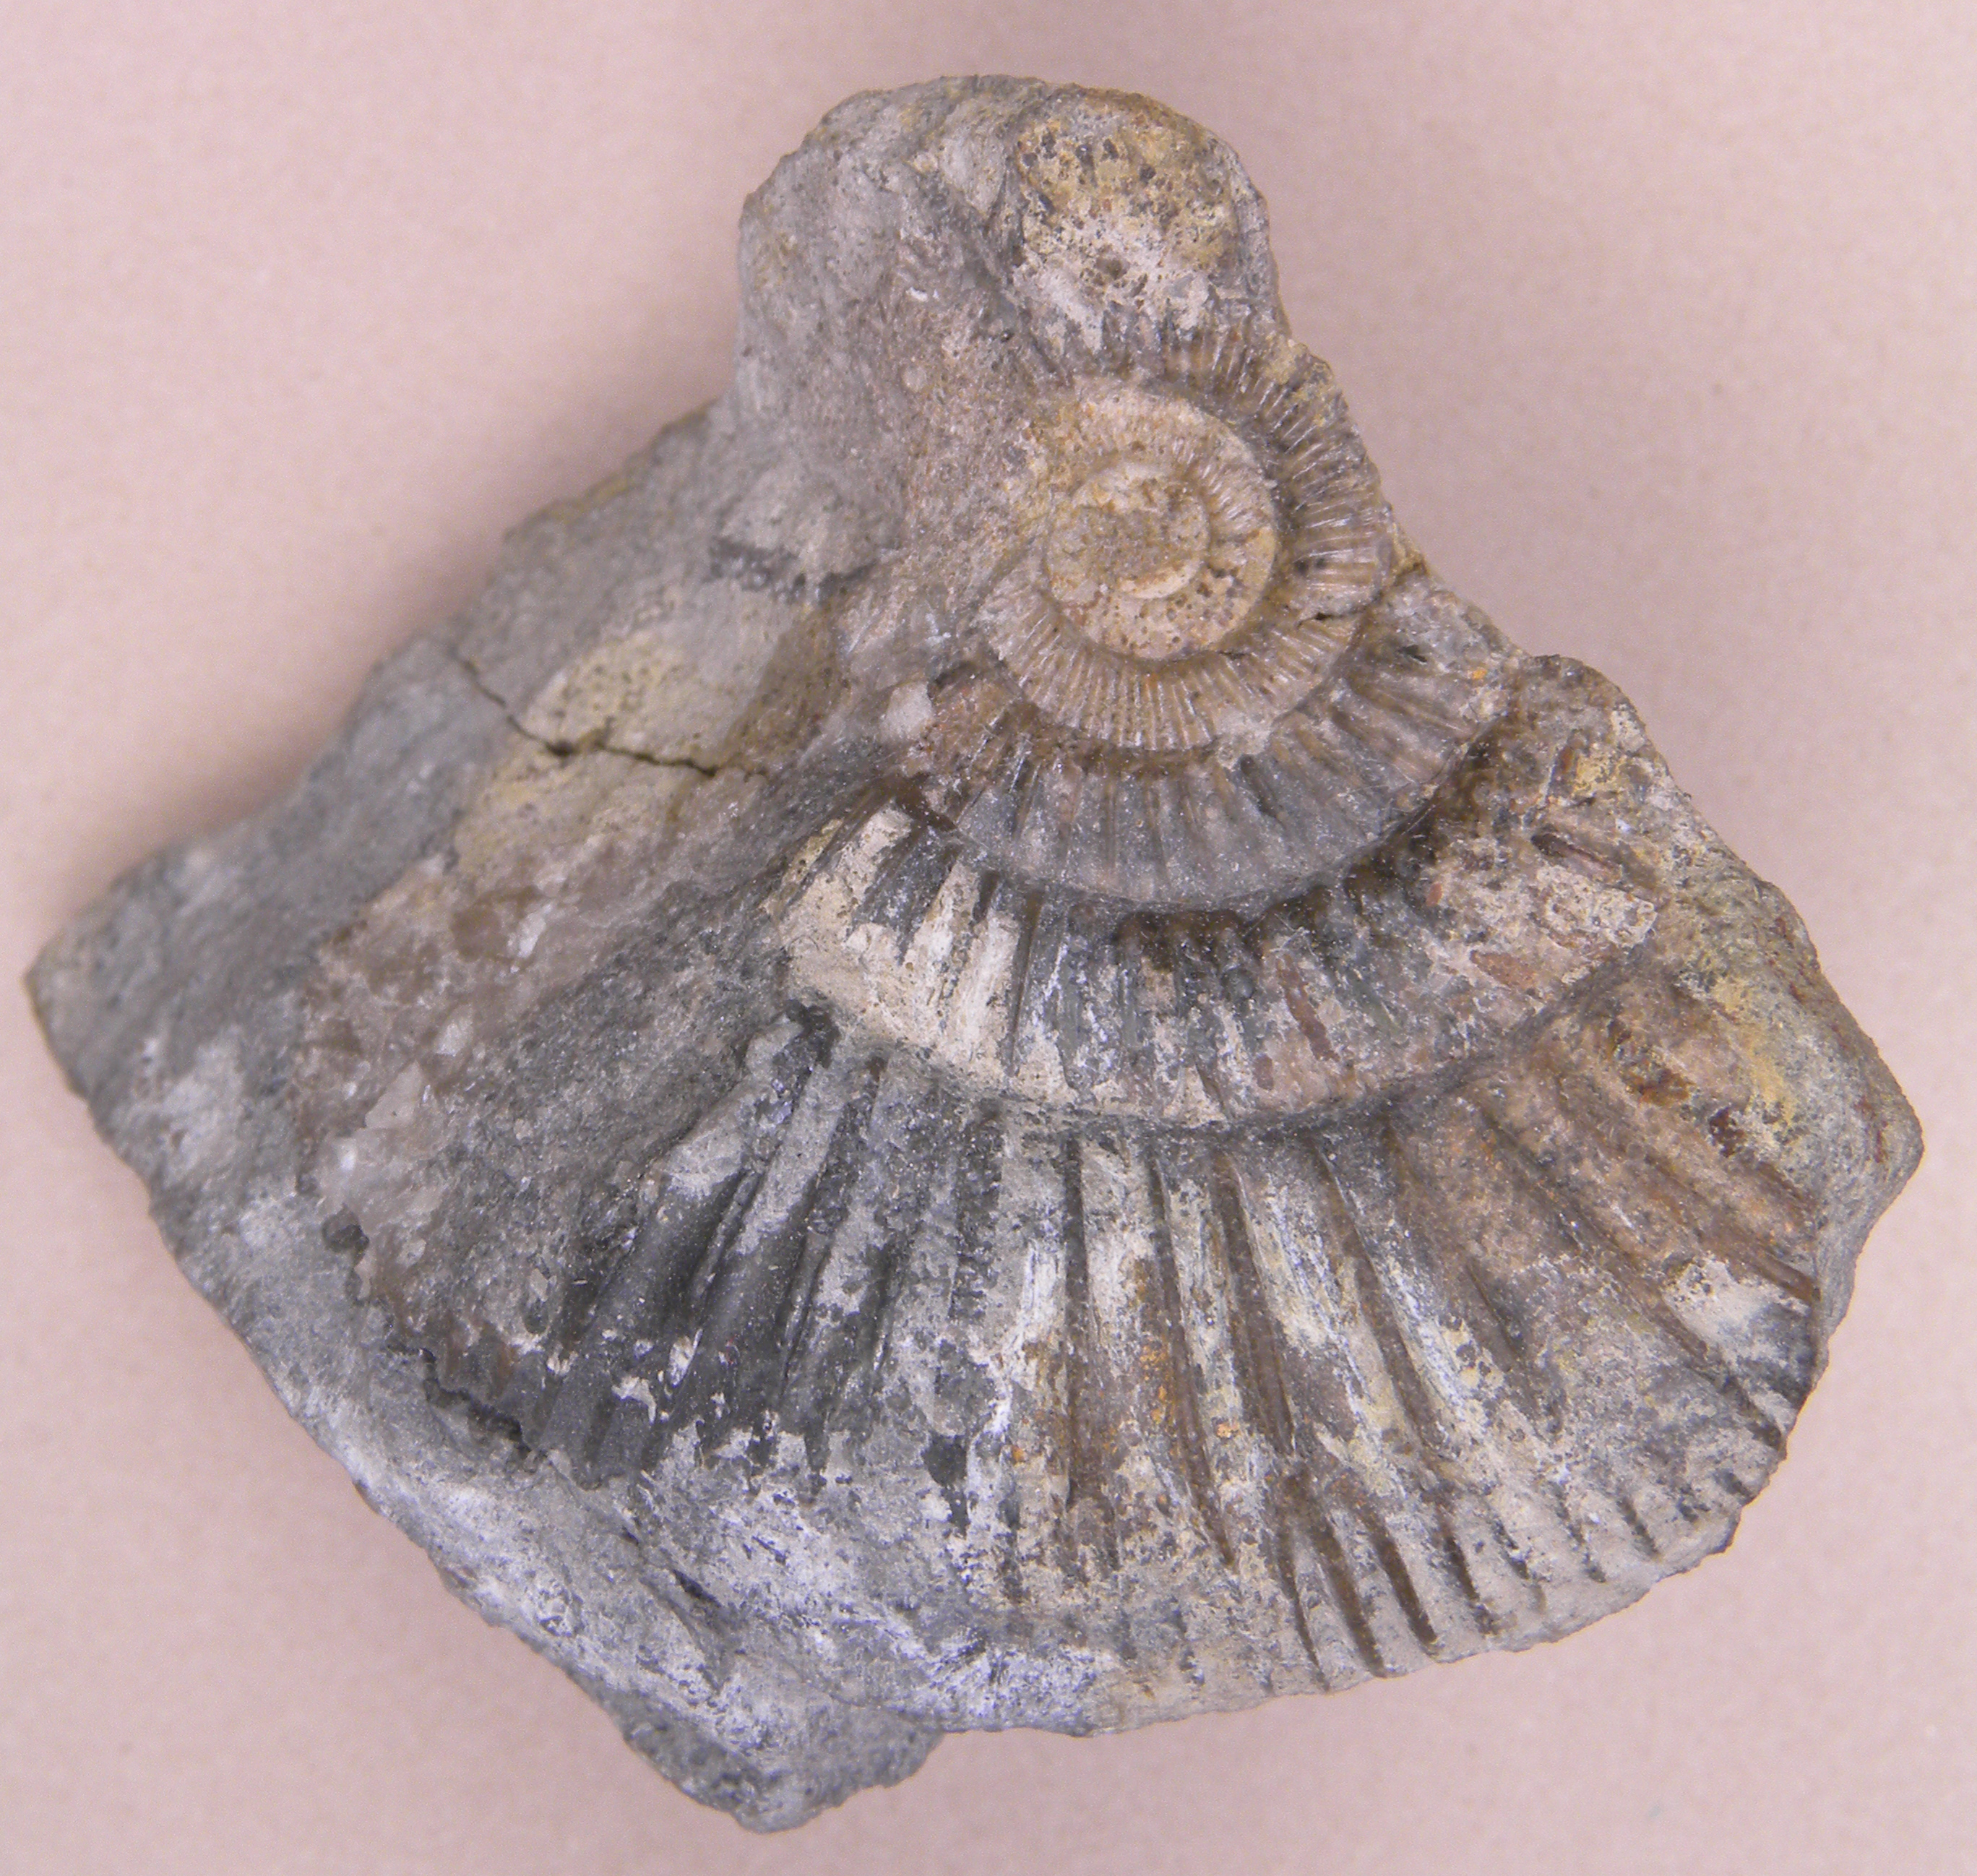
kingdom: Animalia
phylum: Mollusca
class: Cephalopoda
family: Dactylioceratidae
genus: Dactylioceras
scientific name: Dactylioceras
